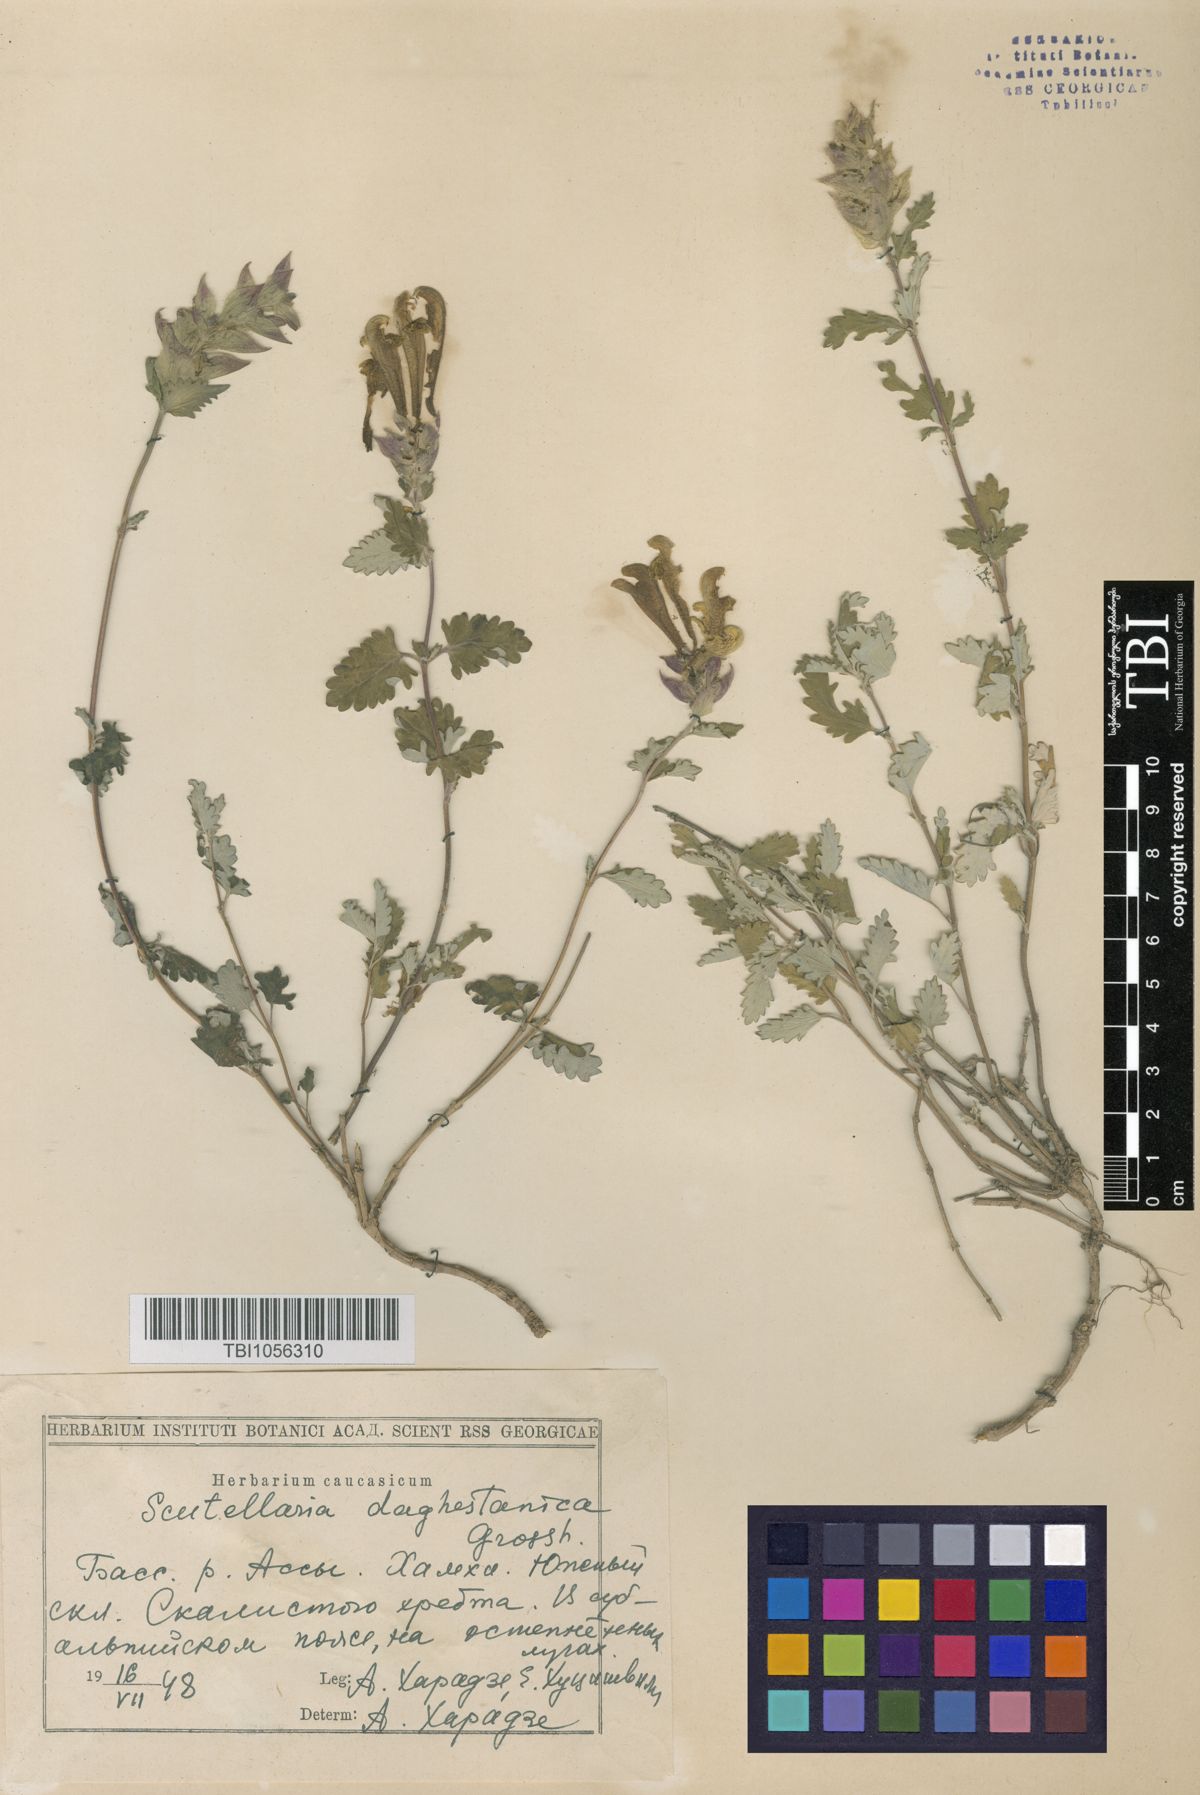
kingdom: Plantae
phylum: Tracheophyta
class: Magnoliopsida
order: Lamiales
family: Lamiaceae
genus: Scutellaria
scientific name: Scutellaria daghestanica
